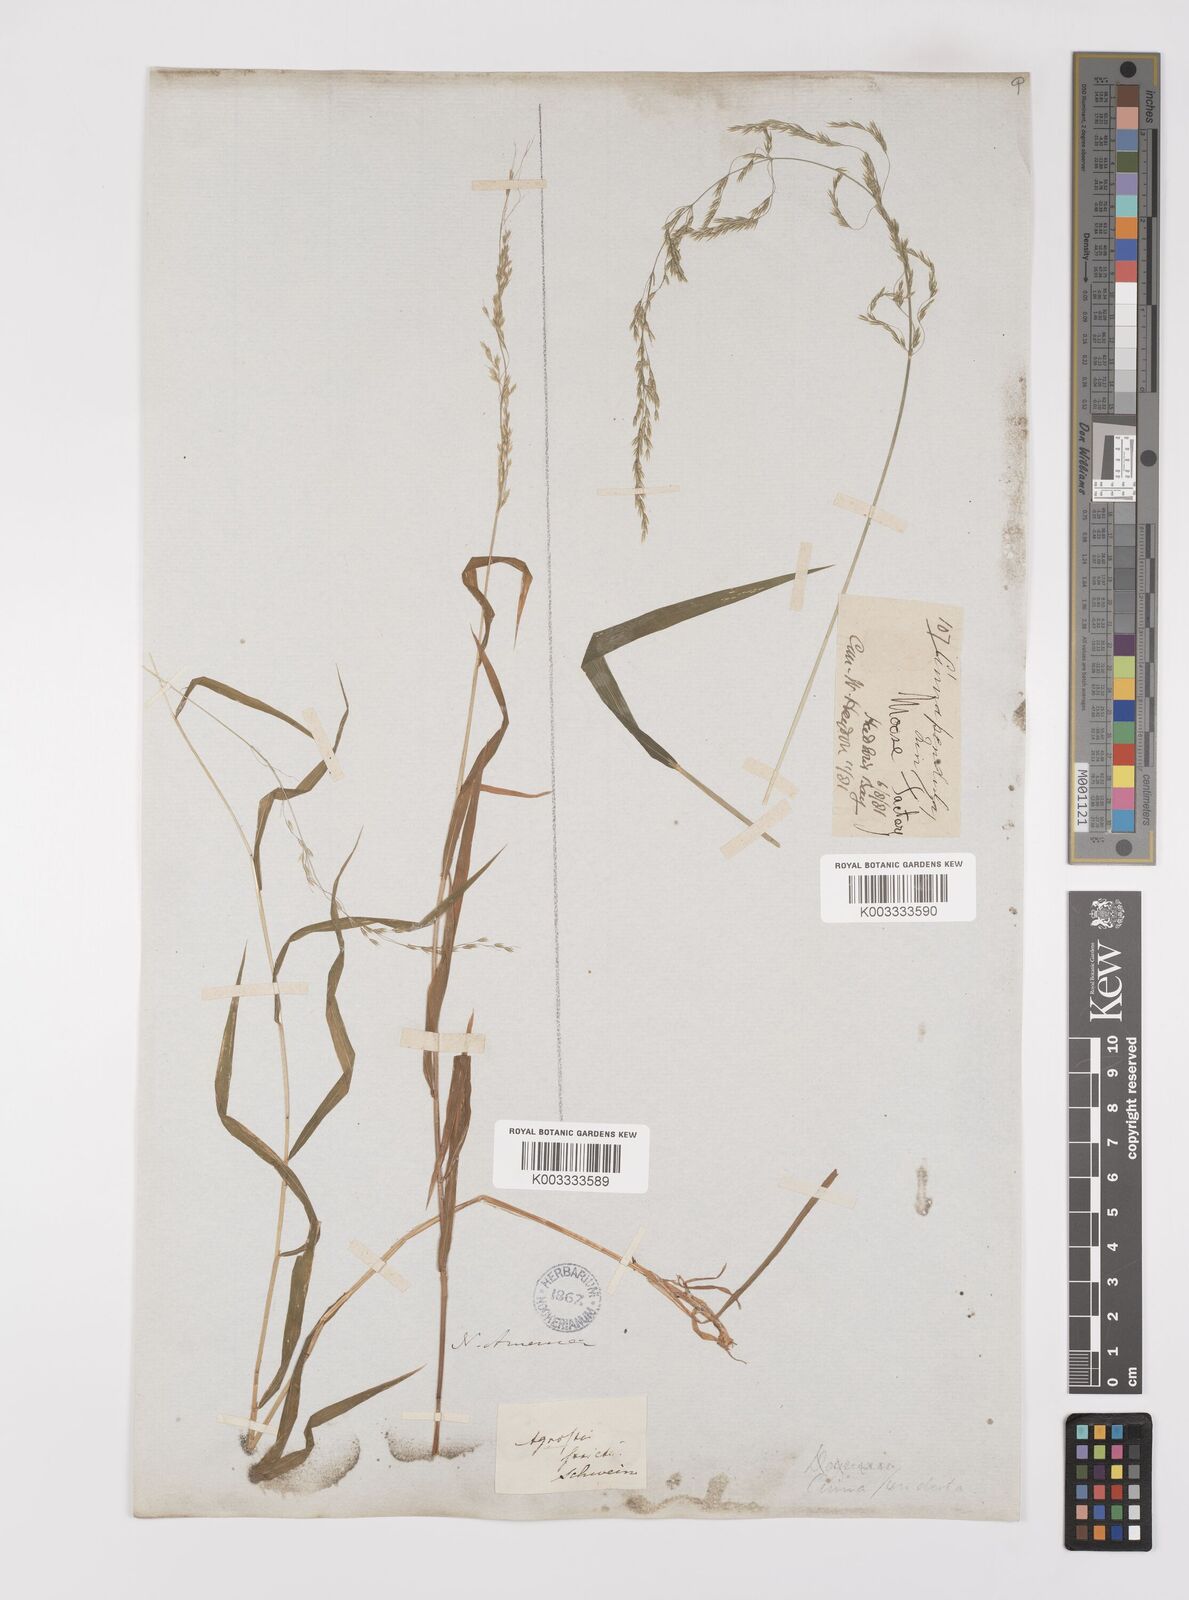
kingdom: Plantae
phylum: Tracheophyta
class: Liliopsida
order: Poales
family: Poaceae
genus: Cinna
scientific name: Cinna latifolia
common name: Drooping woodreed
